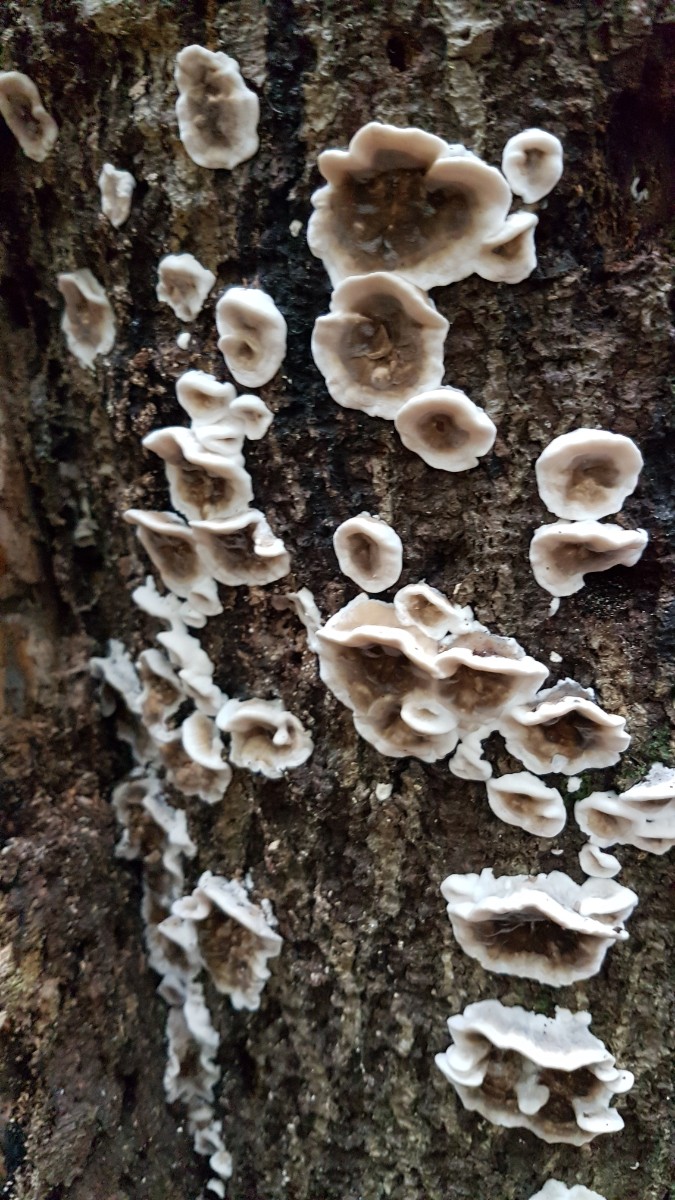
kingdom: Fungi
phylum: Basidiomycota
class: Agaricomycetes
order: Polyporales
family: Phanerochaetaceae
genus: Bjerkandera
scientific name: Bjerkandera adusta
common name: sveden sodporesvamp
